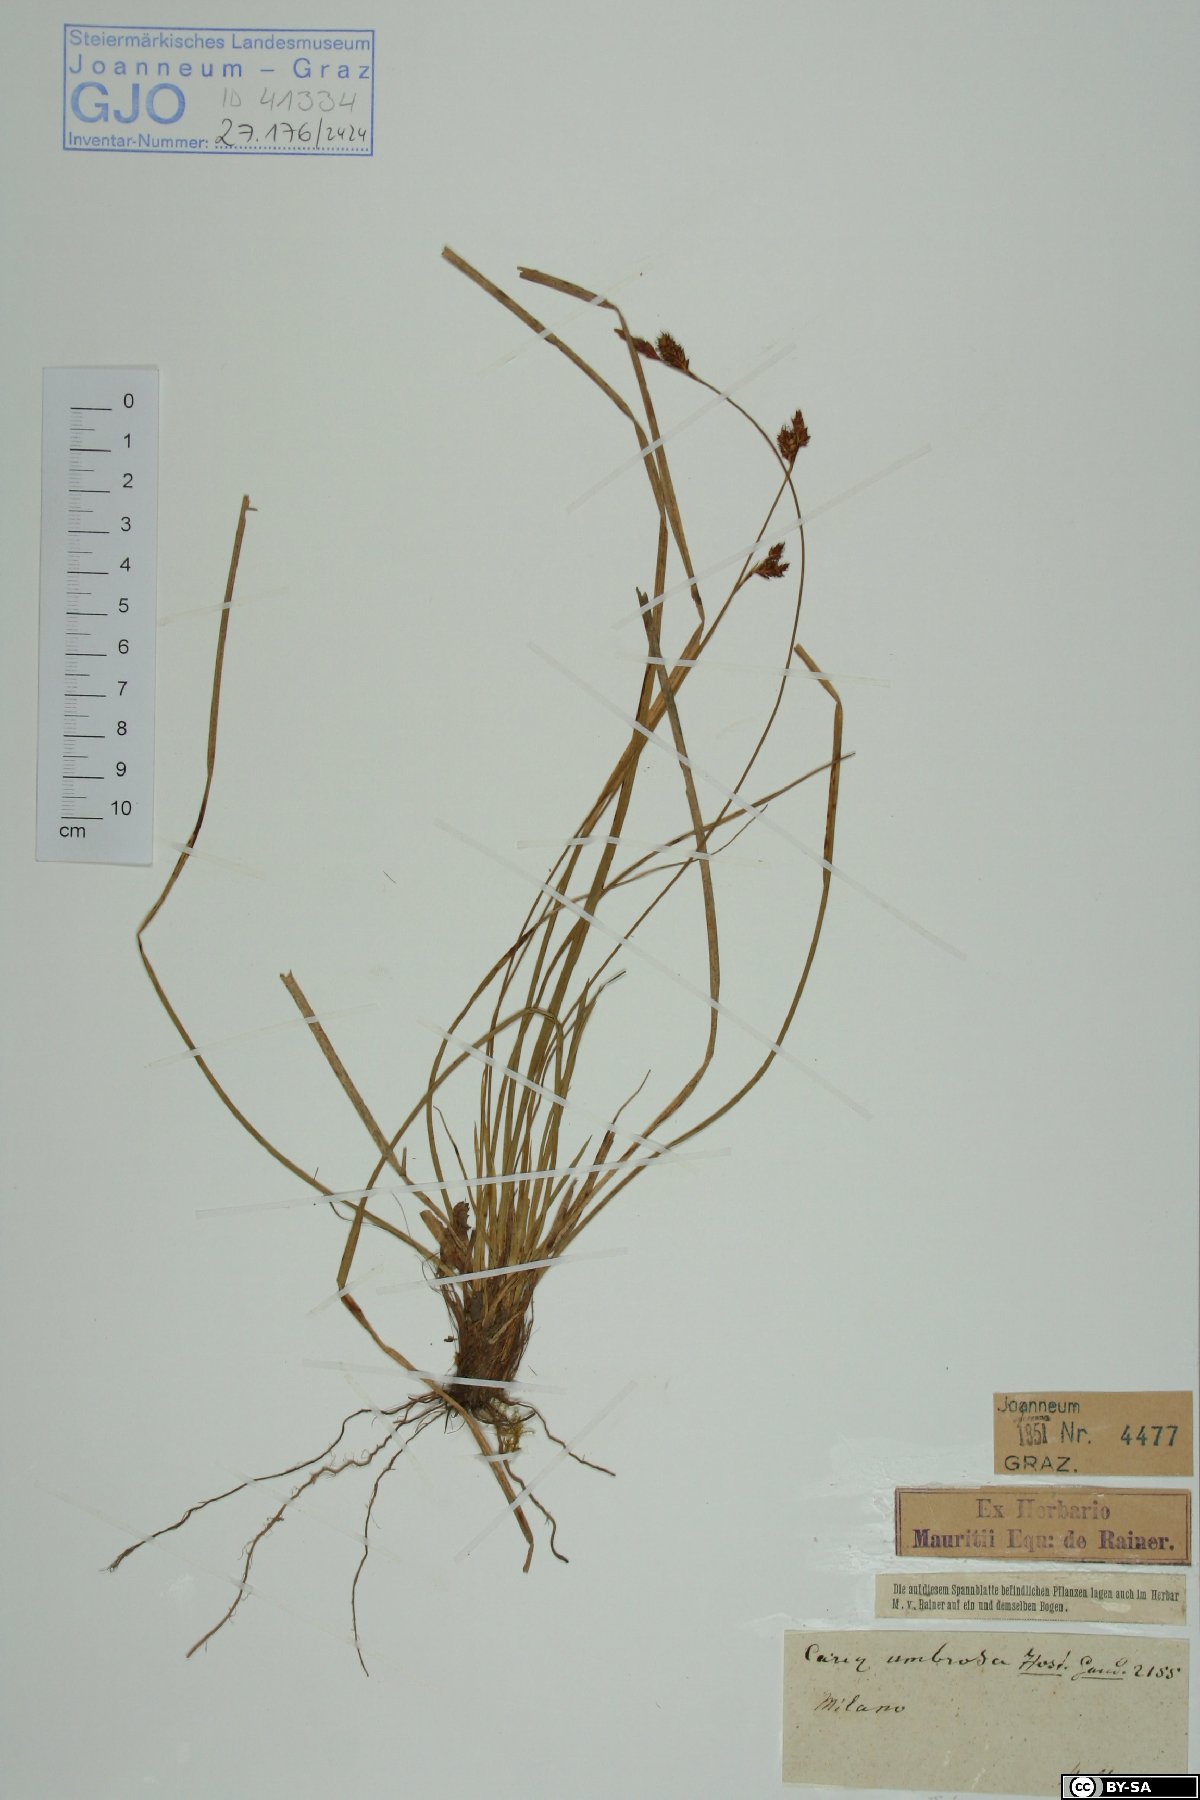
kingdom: Plantae
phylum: Tracheophyta
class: Liliopsida
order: Poales
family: Cyperaceae
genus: Carex
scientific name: Carex umbrosa
